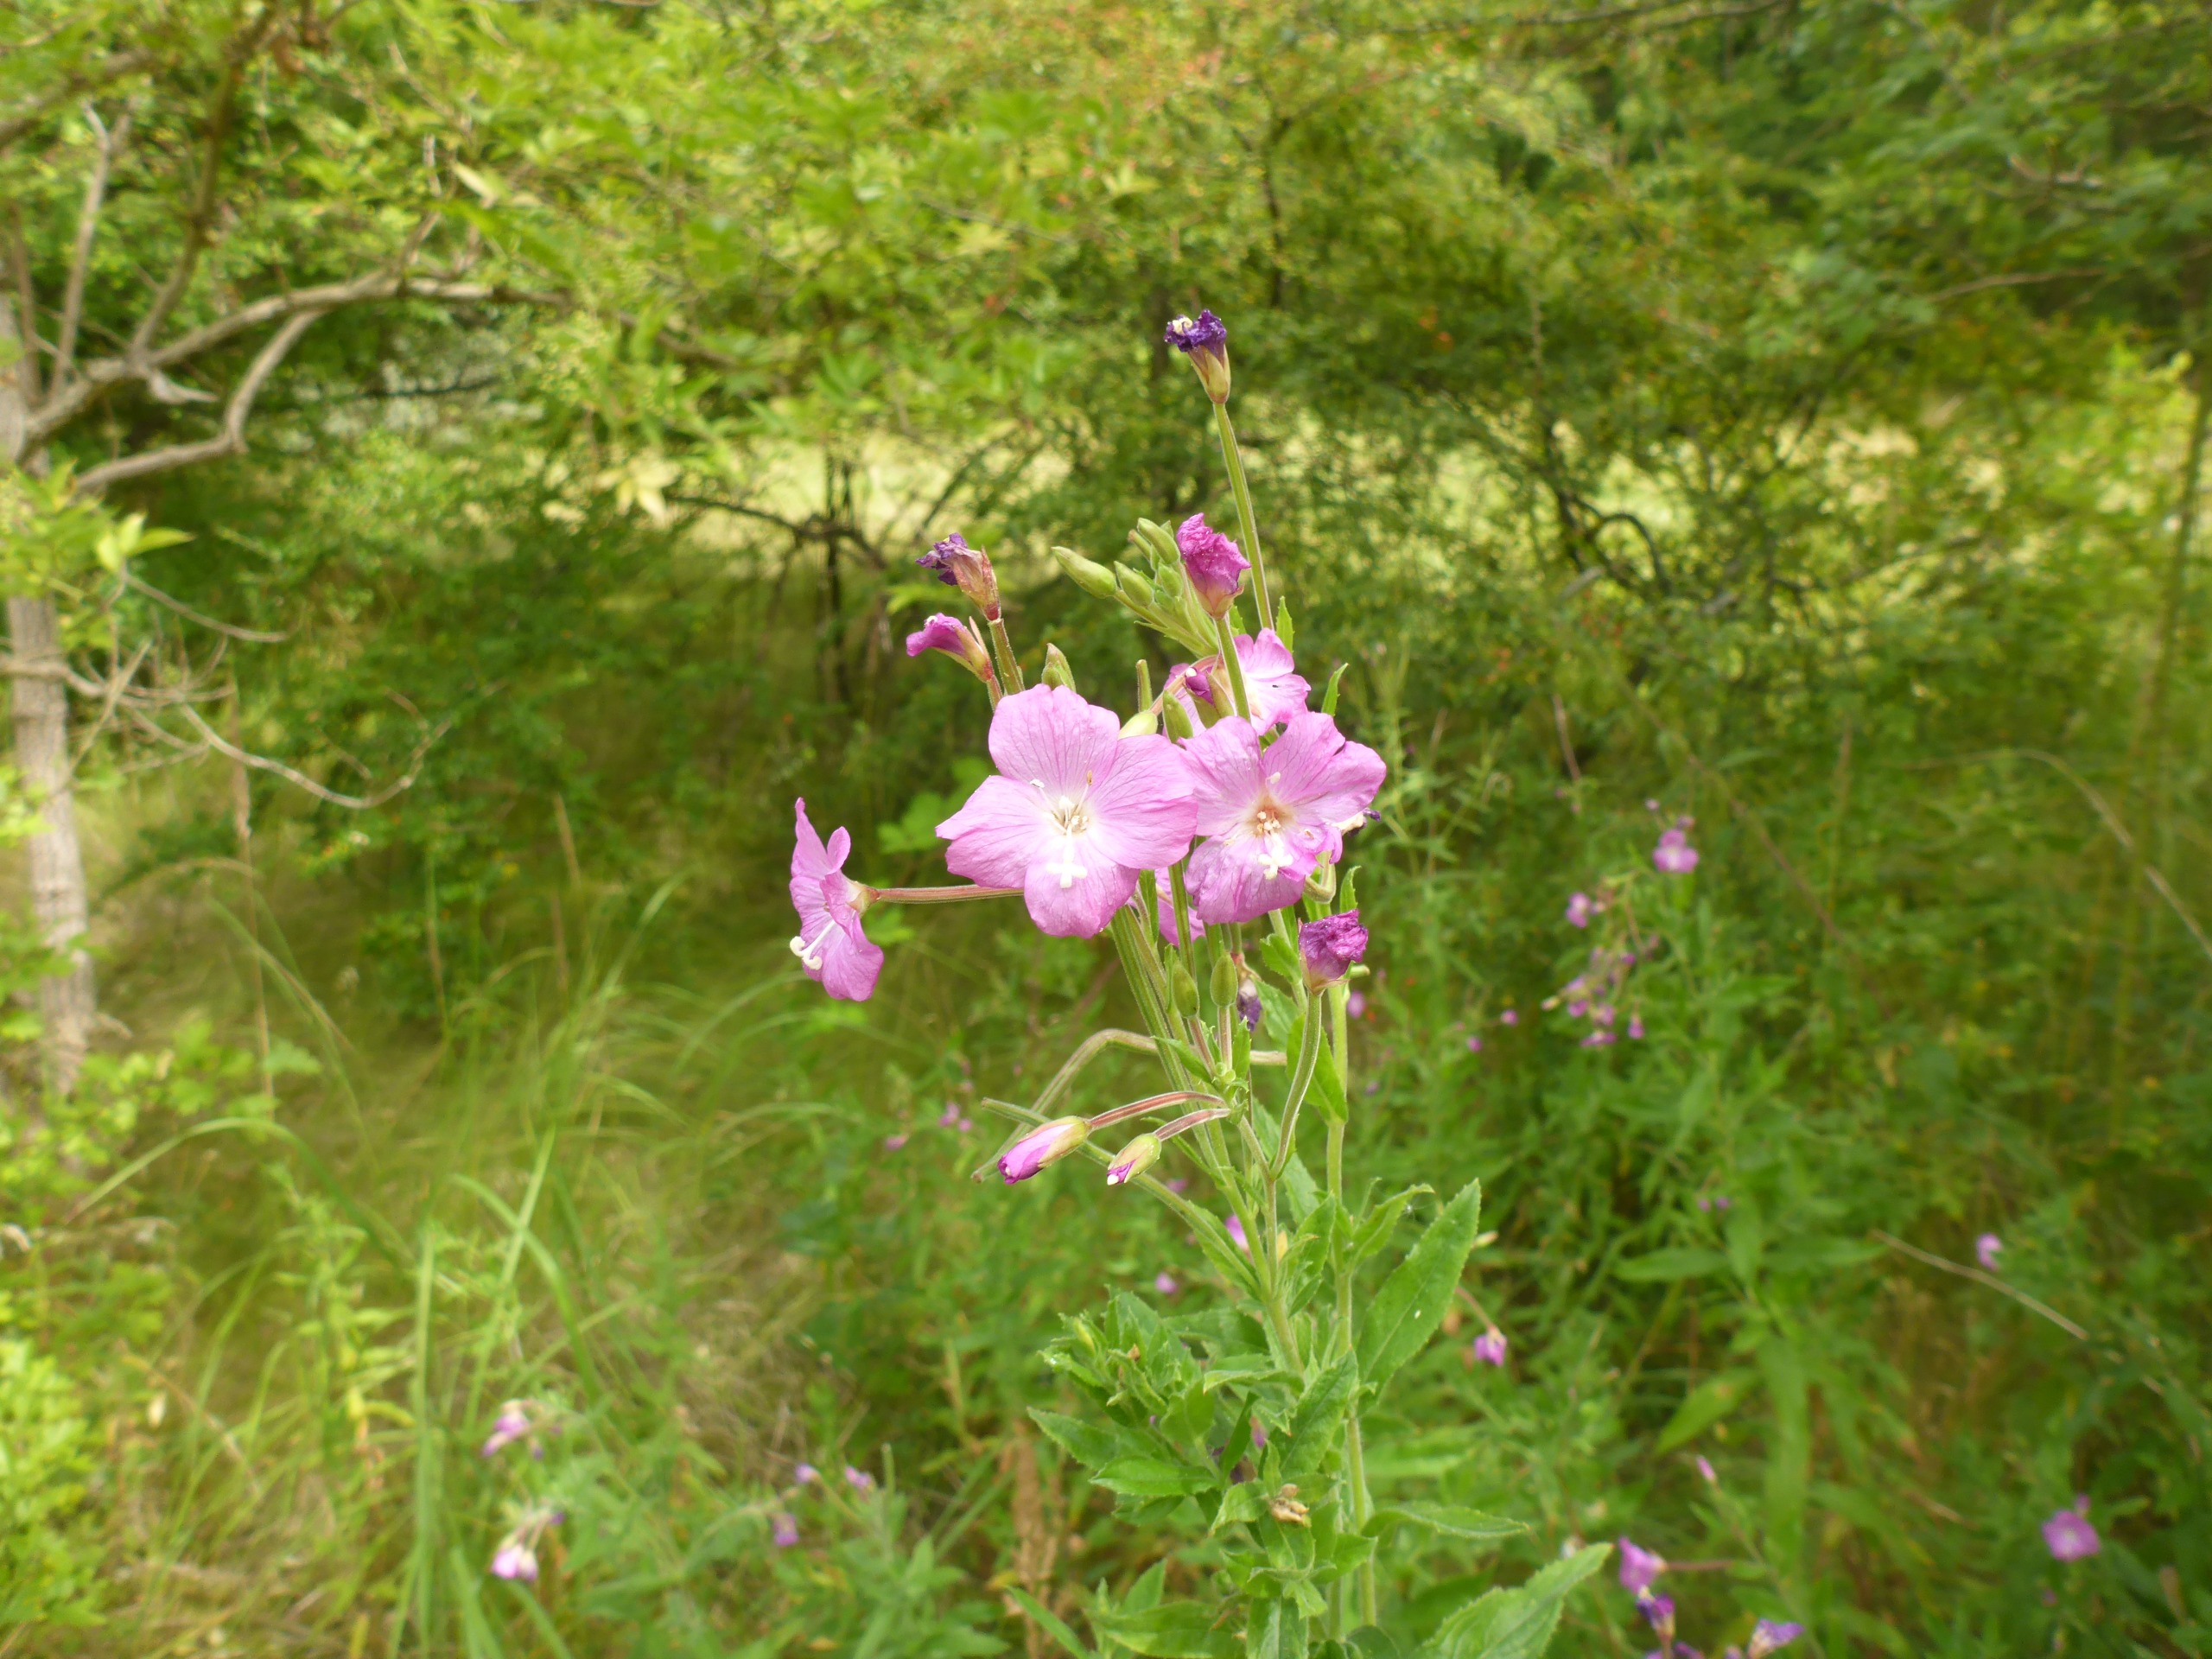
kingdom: Plantae
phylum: Tracheophyta
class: Magnoliopsida
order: Myrtales
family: Onagraceae
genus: Epilobium
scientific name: Epilobium hirsutum
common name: Lådden dueurt
